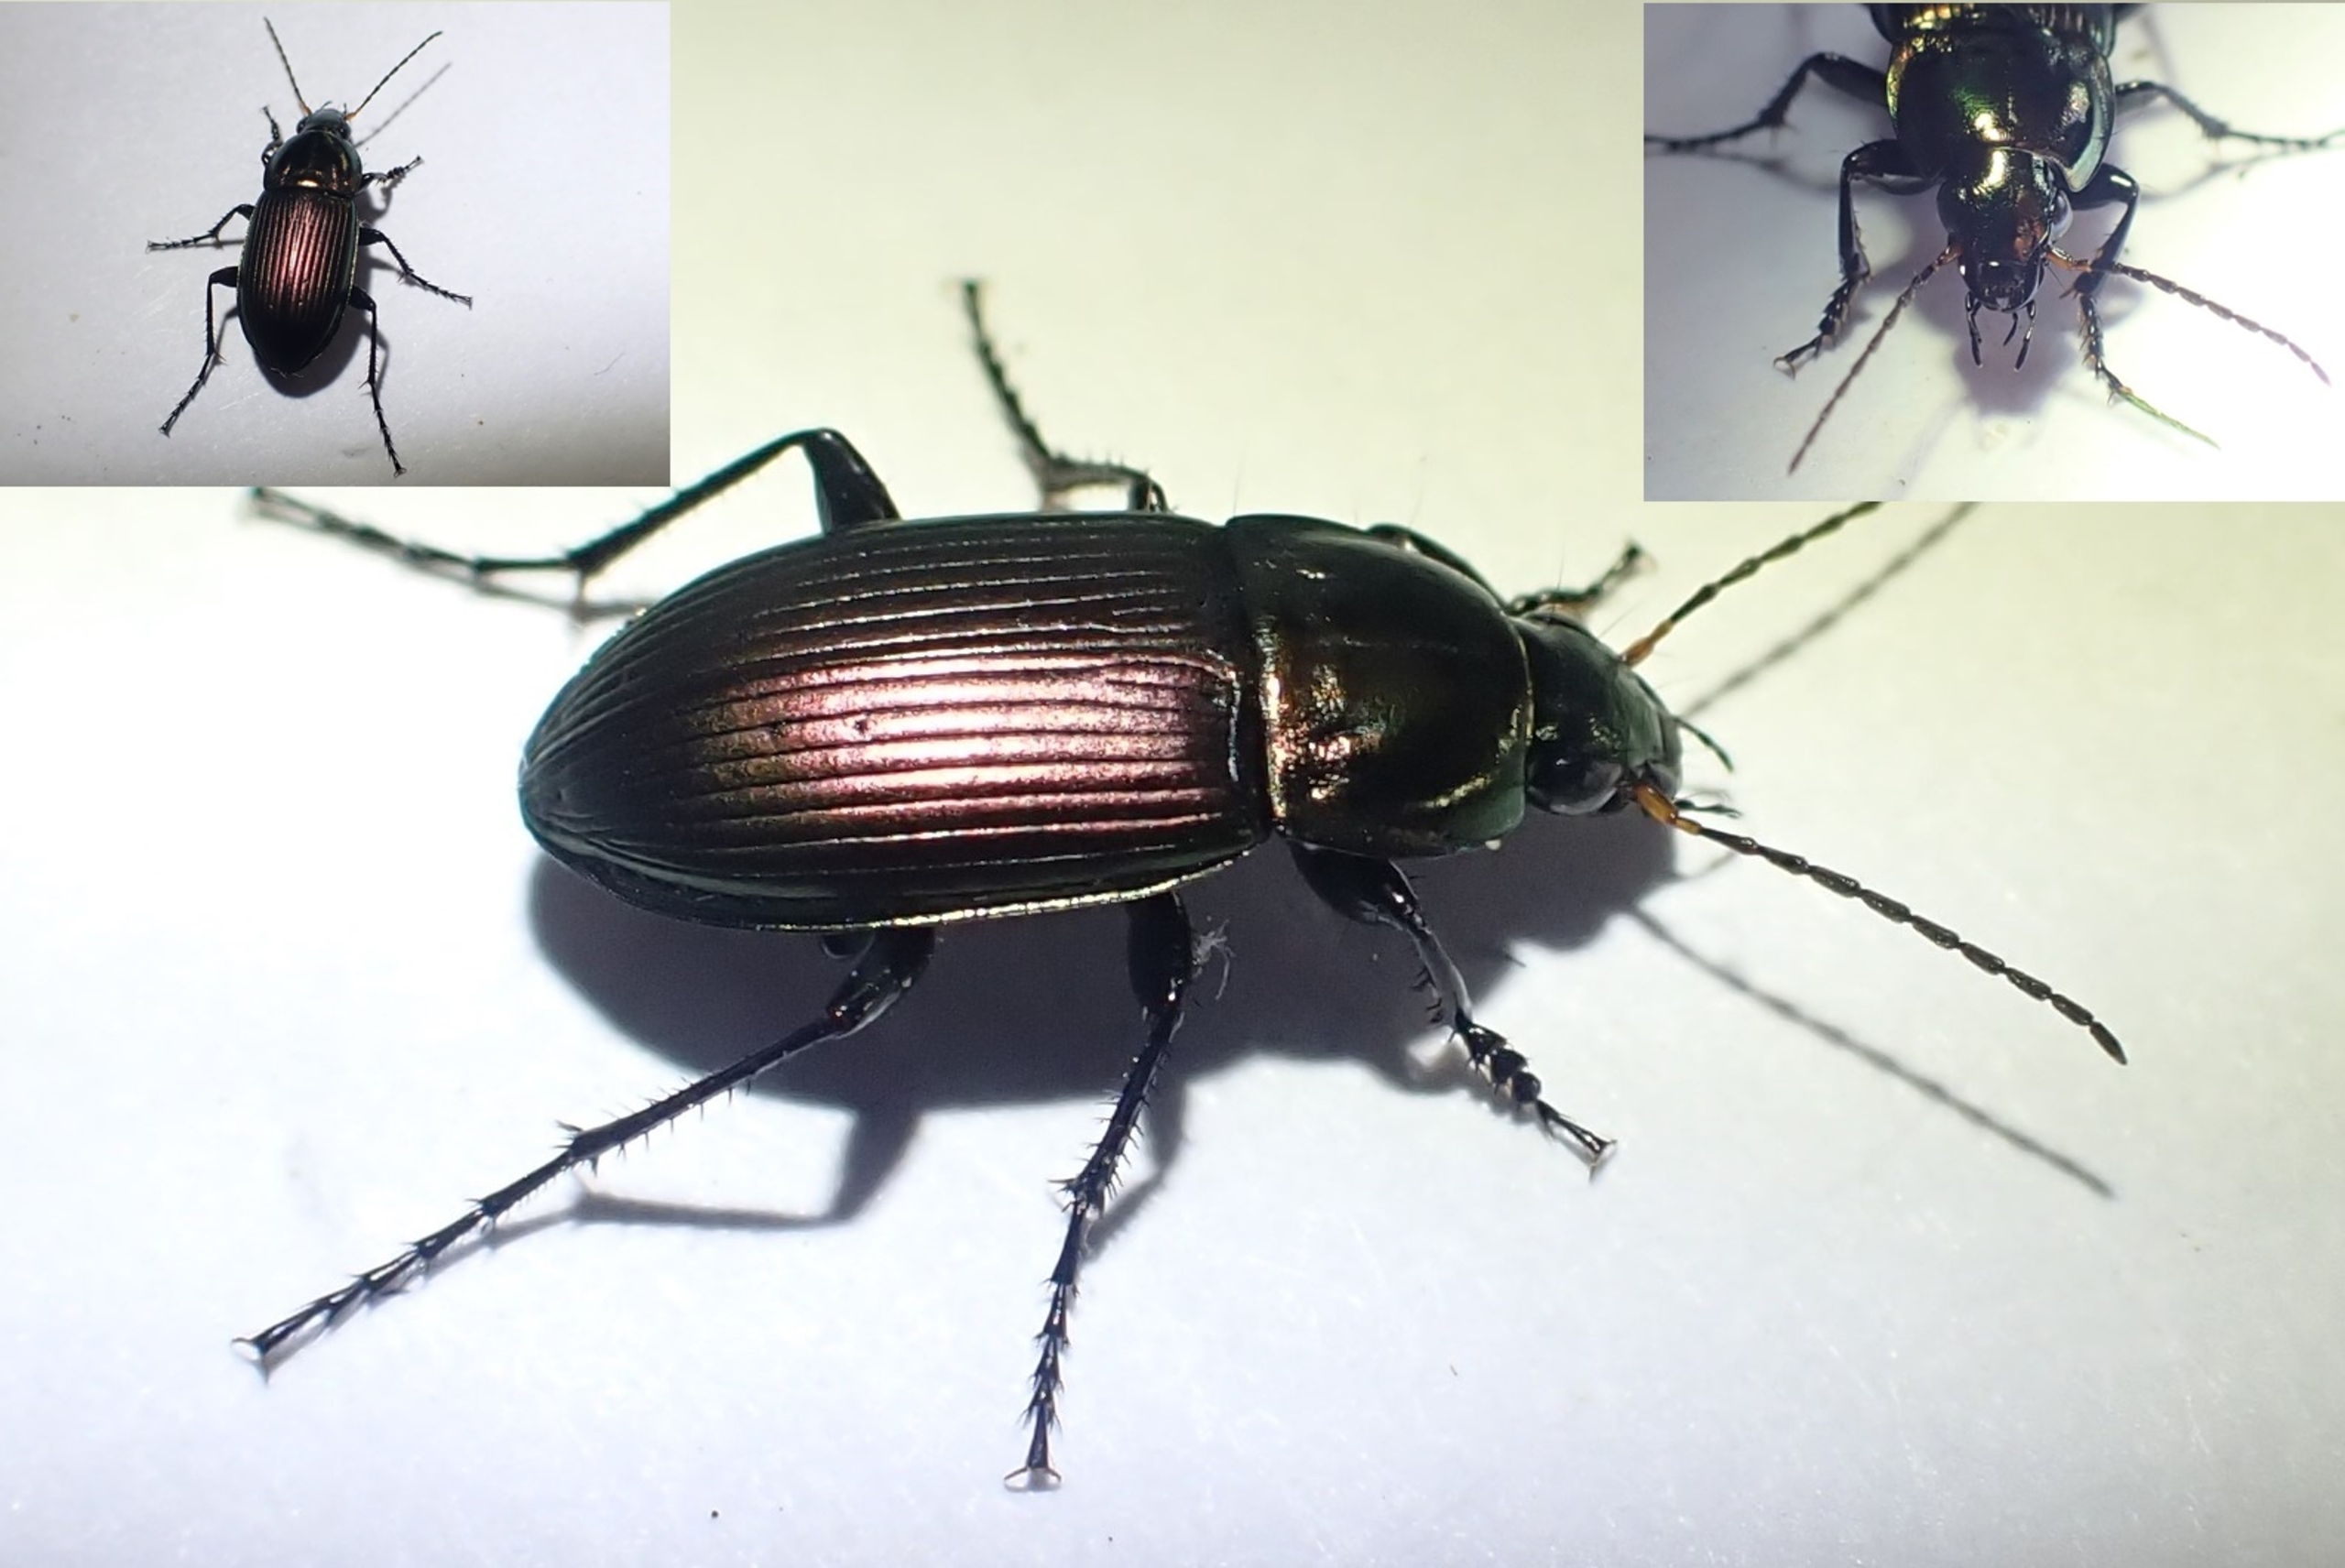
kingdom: Animalia
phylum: Arthropoda
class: Insecta
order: Coleoptera
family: Carabidae
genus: Poecilus
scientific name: Poecilus versicolor
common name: Lille metaljordløber
